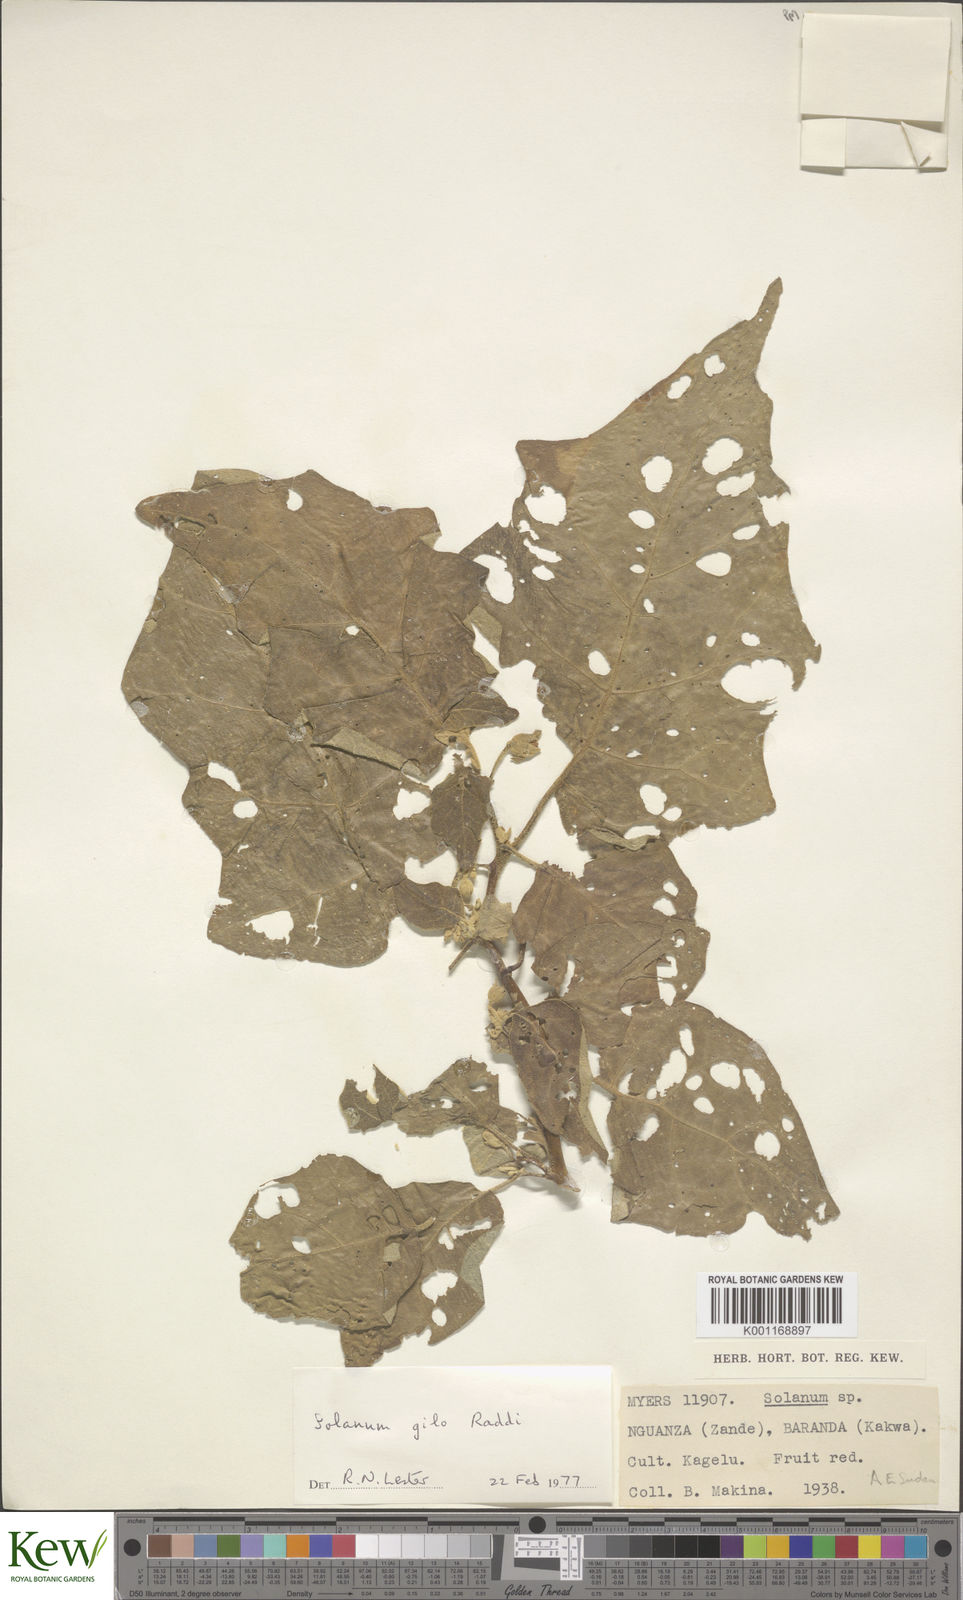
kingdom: Plantae
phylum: Tracheophyta
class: Magnoliopsida
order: Solanales
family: Solanaceae
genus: Solanum
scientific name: Solanum aethiopicum
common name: Gilo
